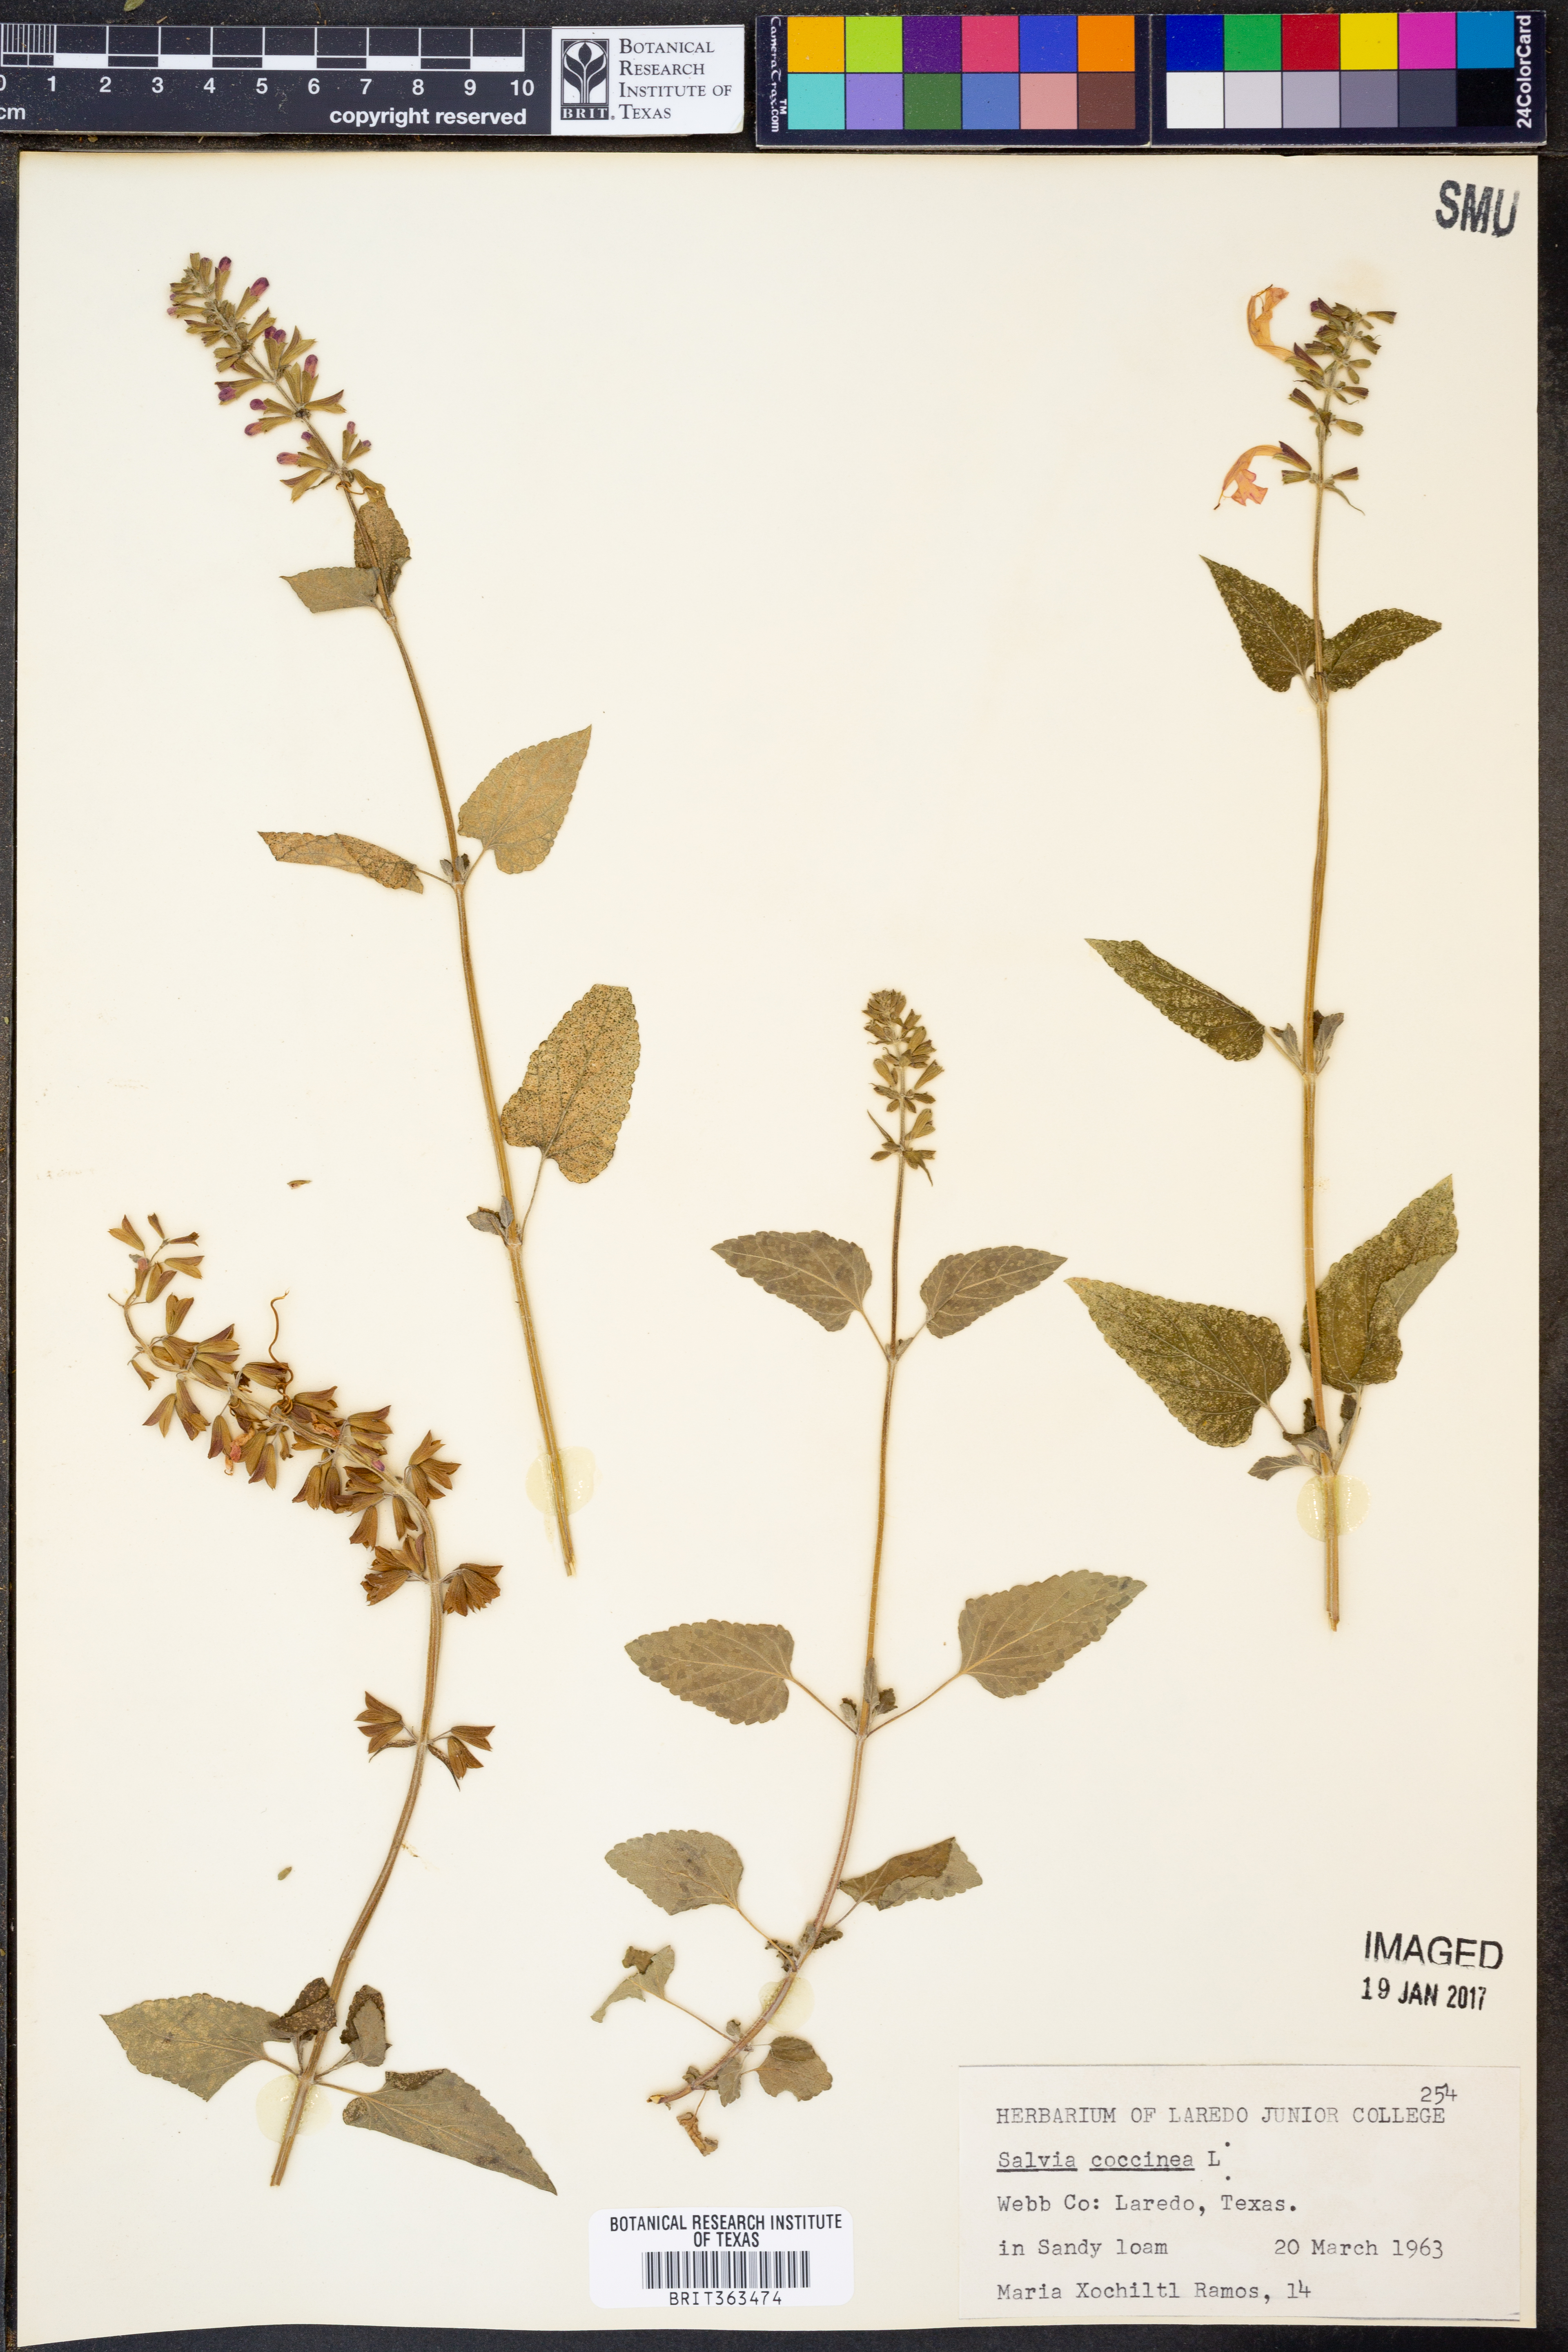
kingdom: Plantae
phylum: Tracheophyta
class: Magnoliopsida
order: Lamiales
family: Lamiaceae
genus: Salvia
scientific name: Salvia coccinea
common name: Blood sage
